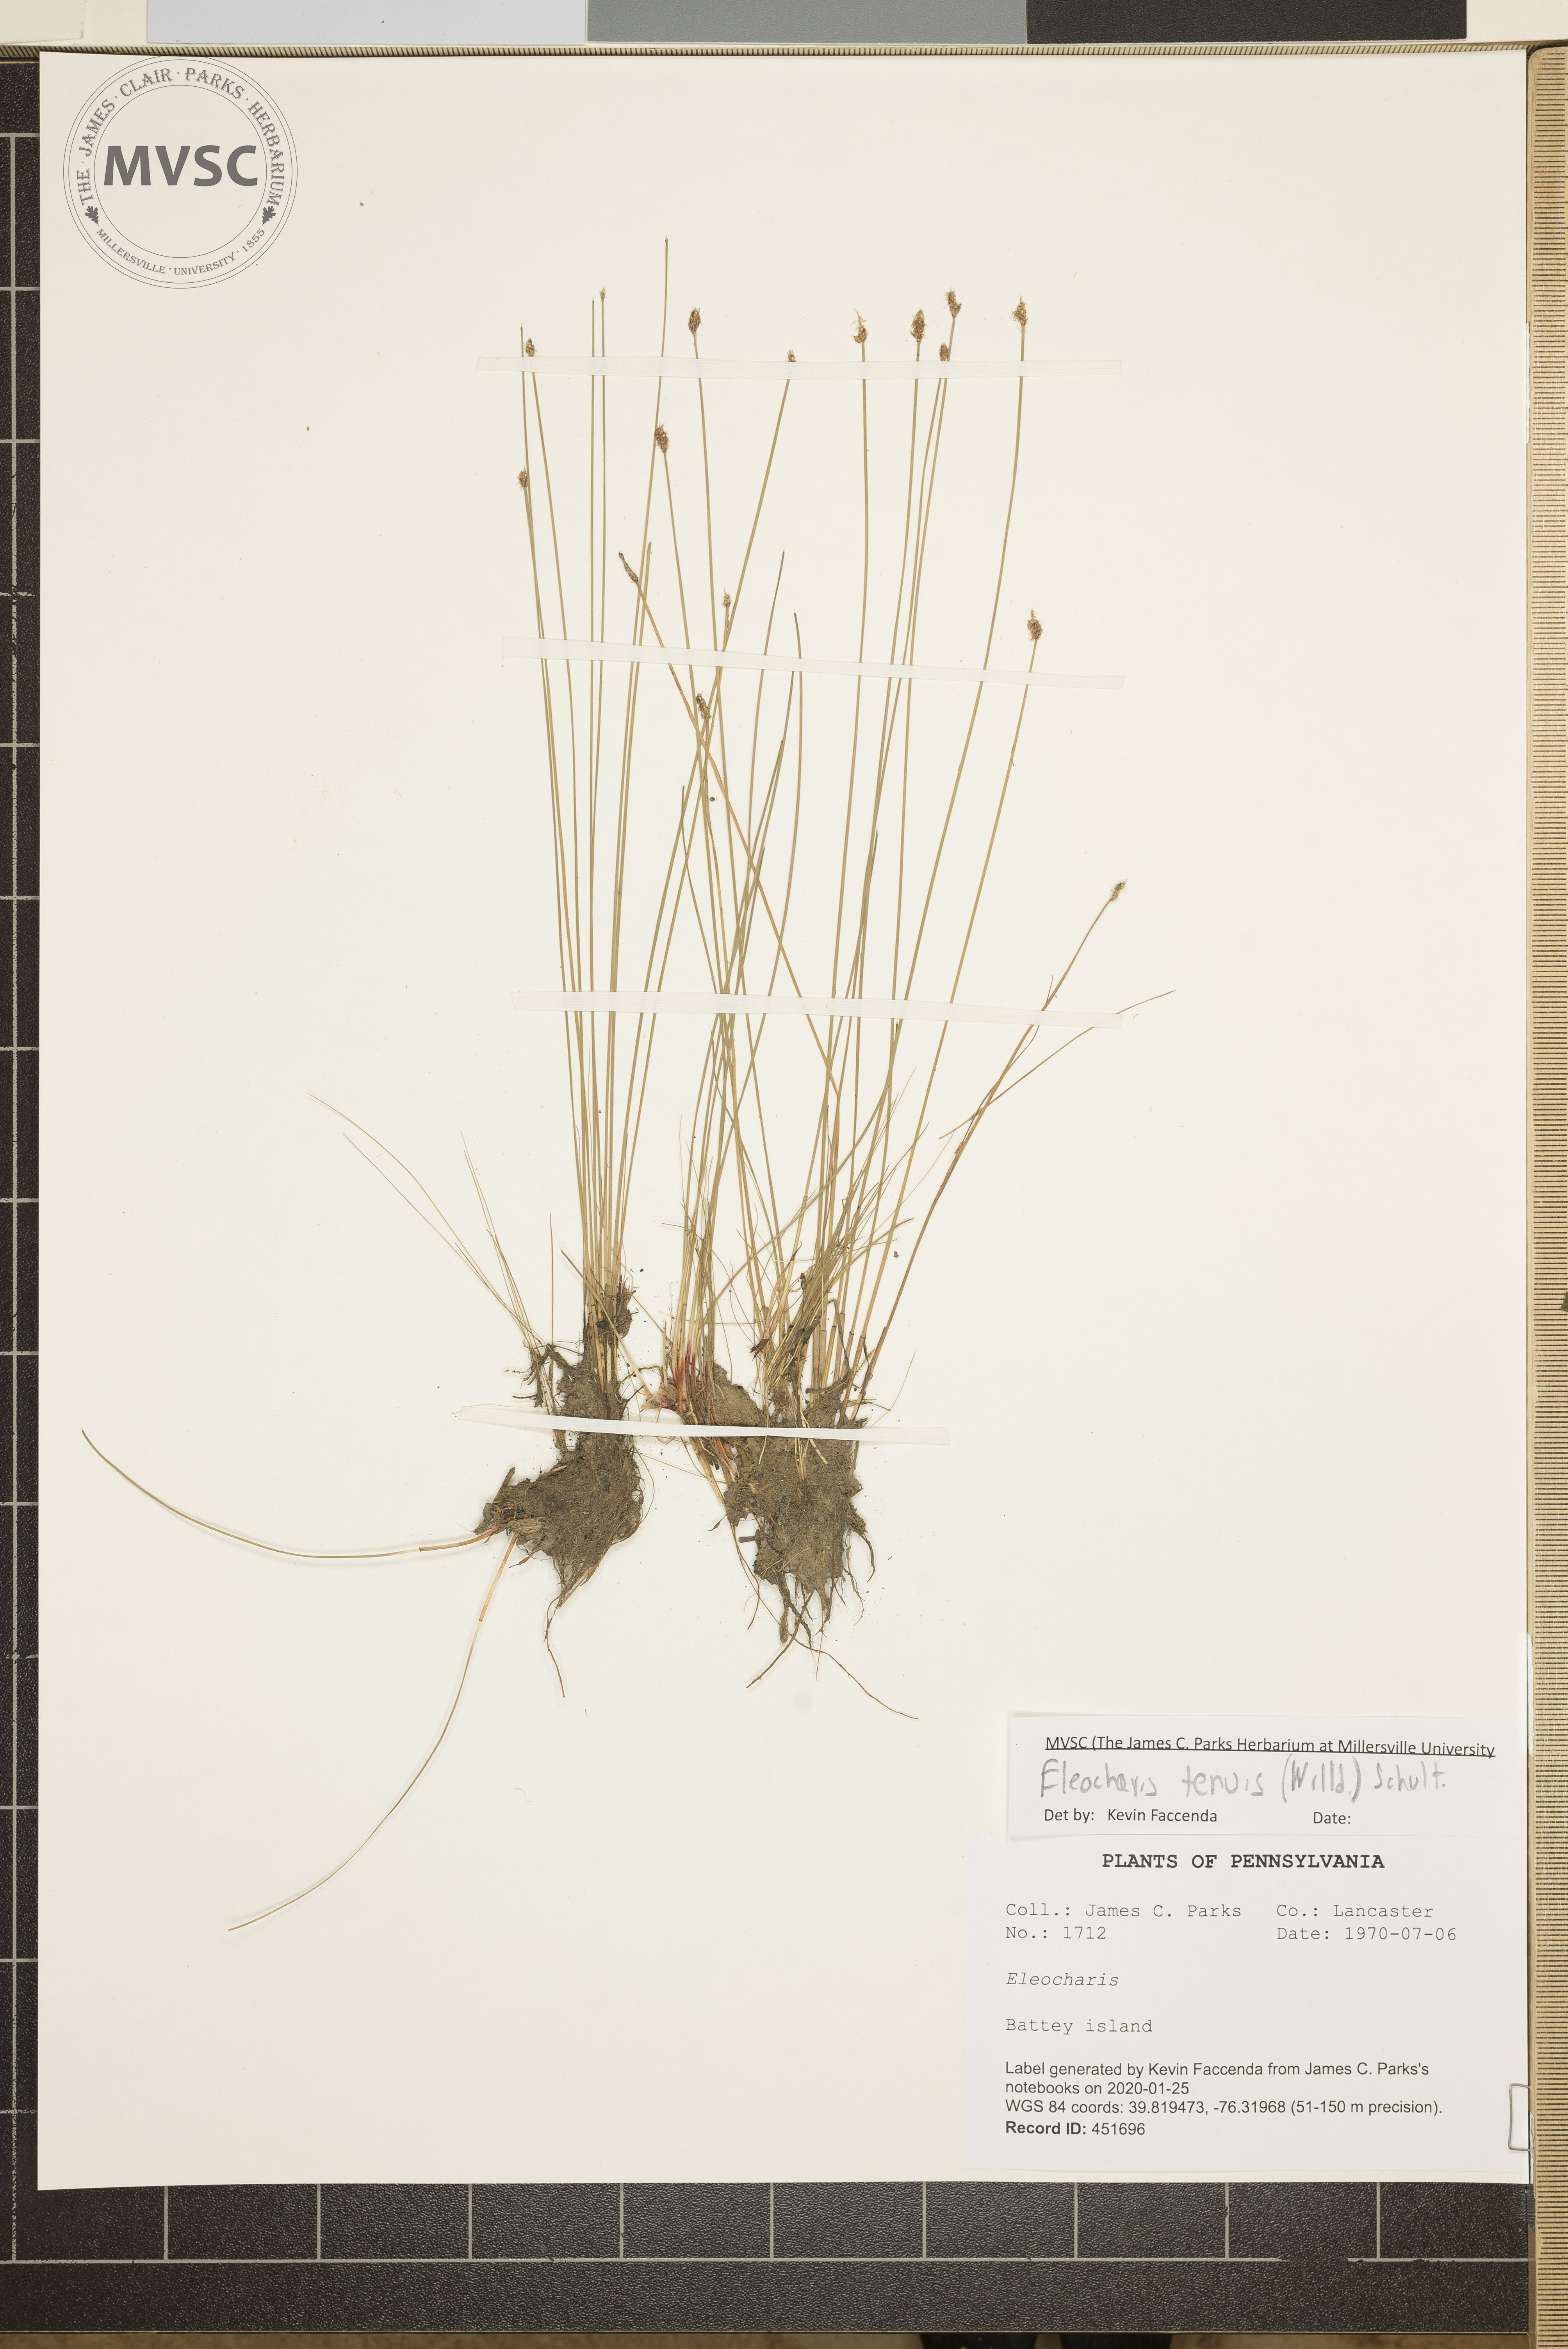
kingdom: Plantae
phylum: Tracheophyta
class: Liliopsida
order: Poales
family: Cyperaceae
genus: Eleocharis
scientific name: Eleocharis tenuis
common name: Dog's hair
